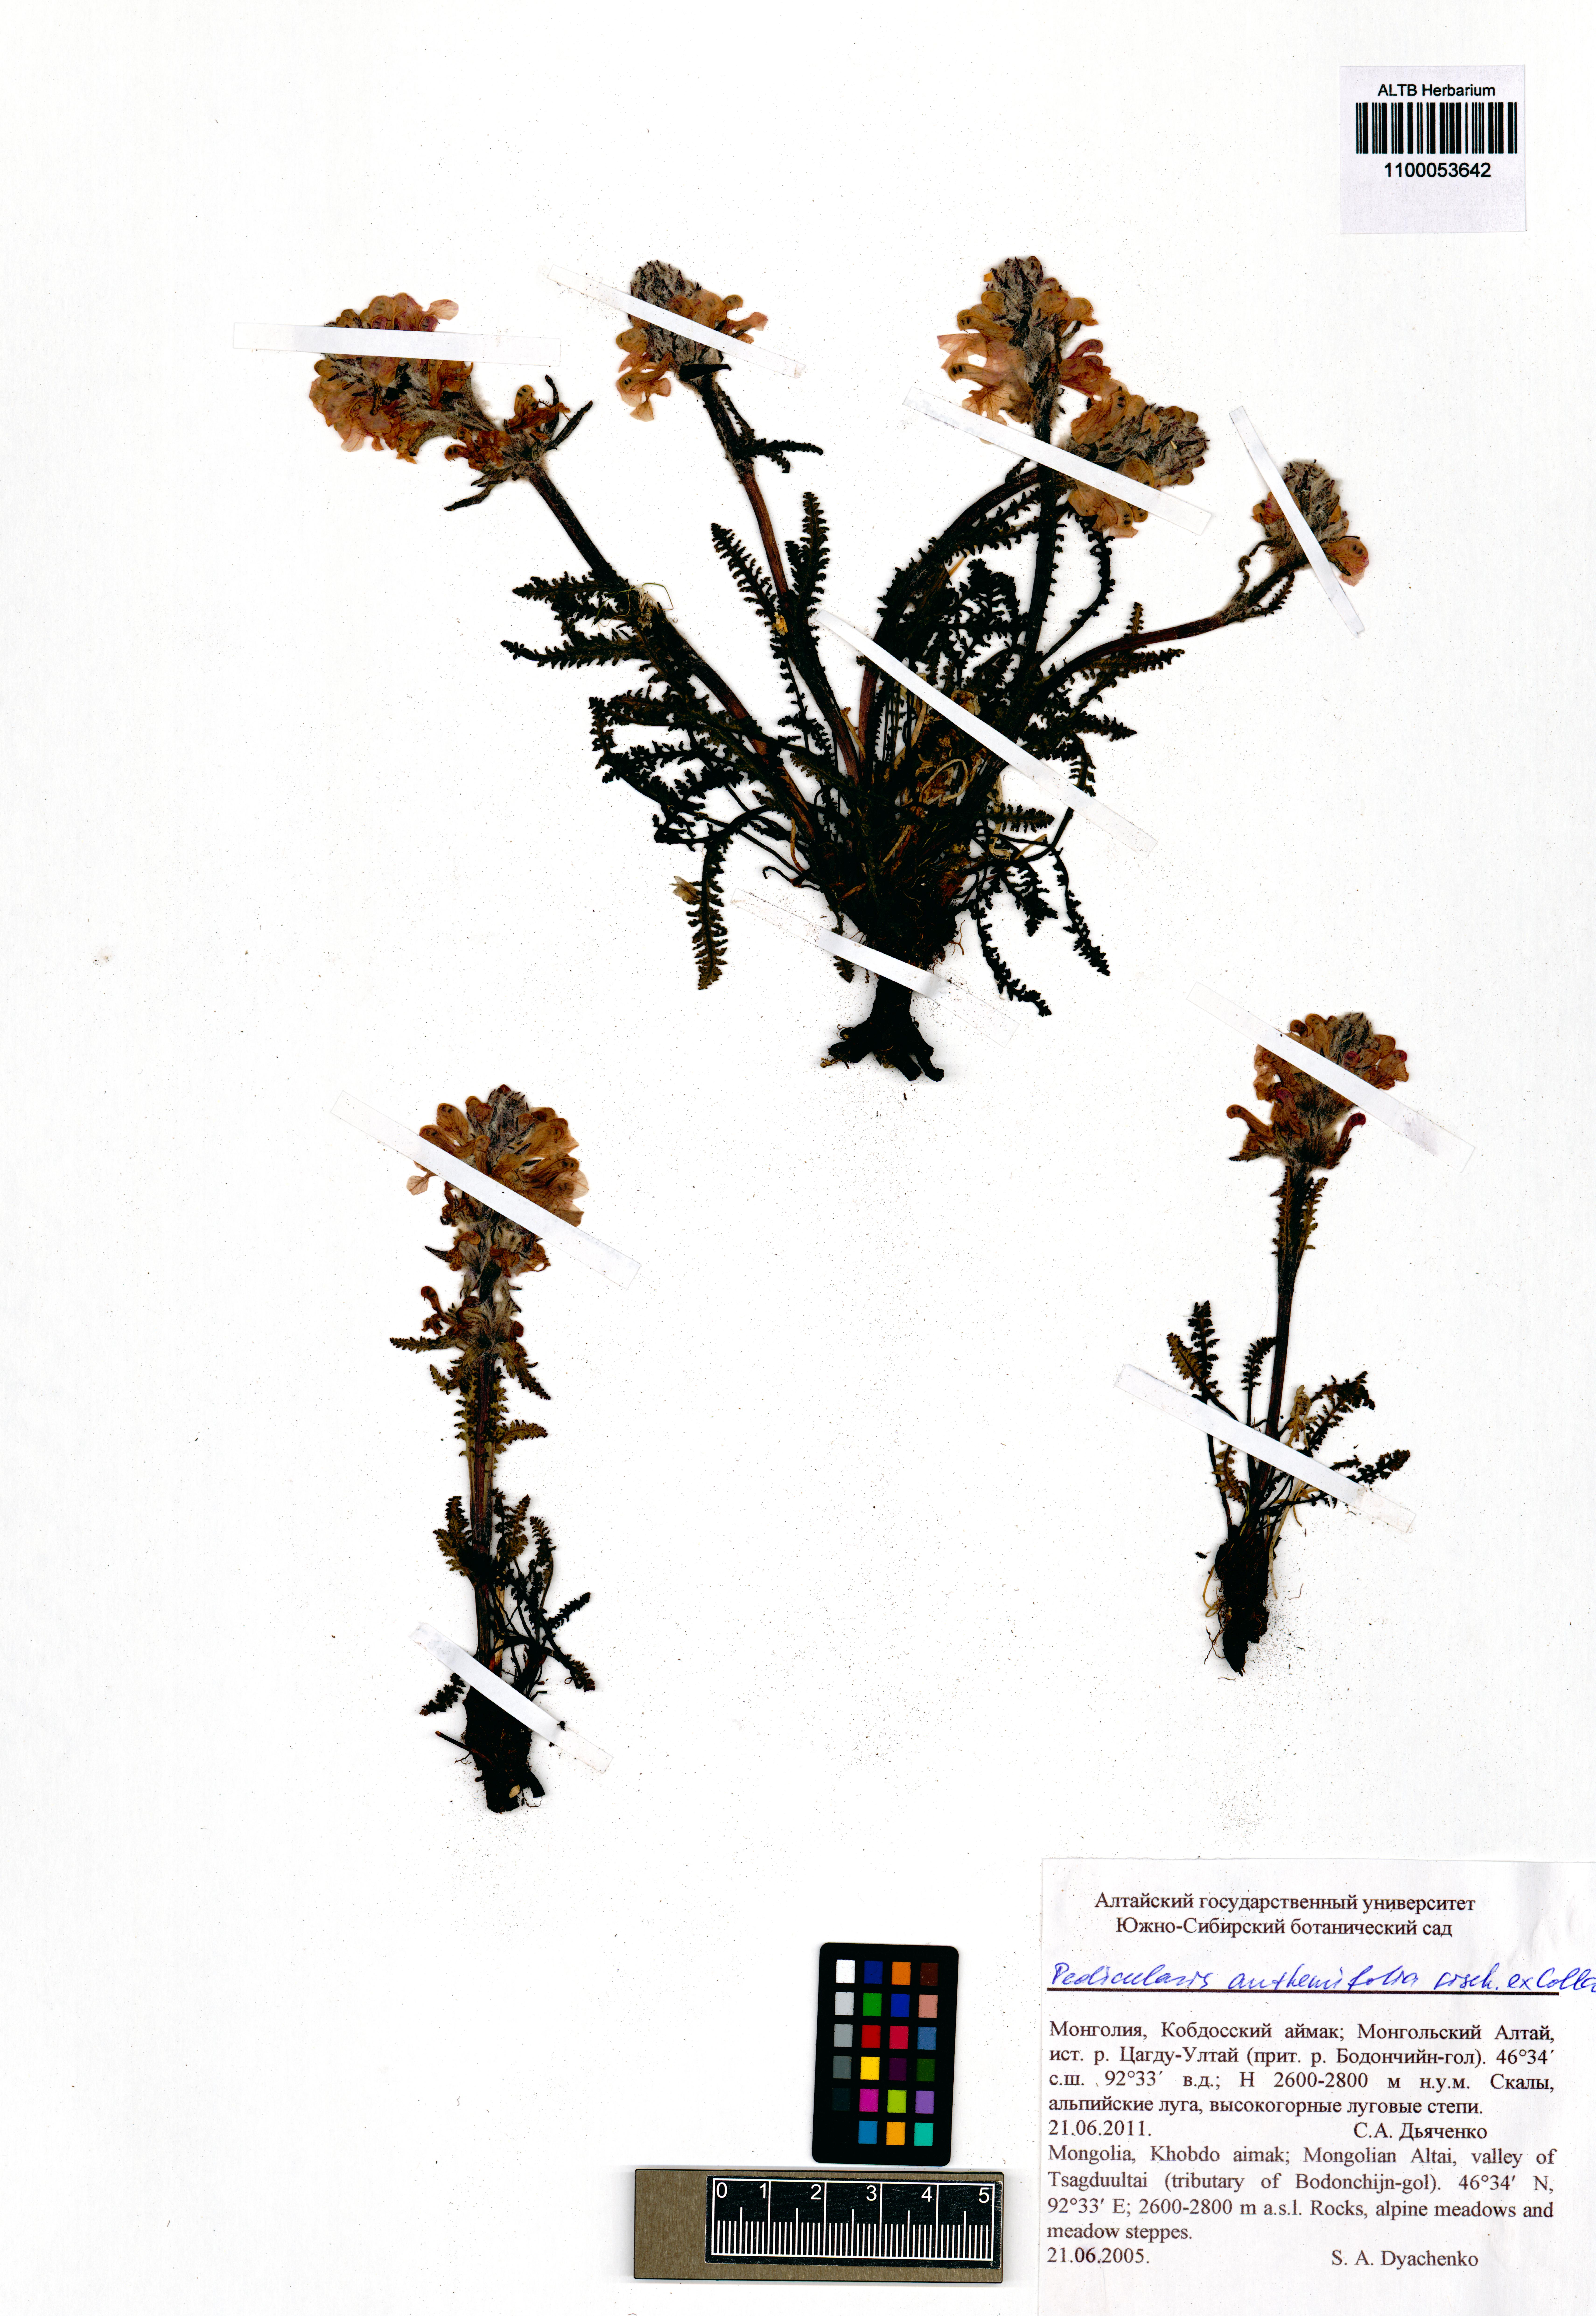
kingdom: Plantae
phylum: Tracheophyta
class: Magnoliopsida
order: Lamiales
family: Orobanchaceae
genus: Pedicularis
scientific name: Pedicularis anthemifolia
